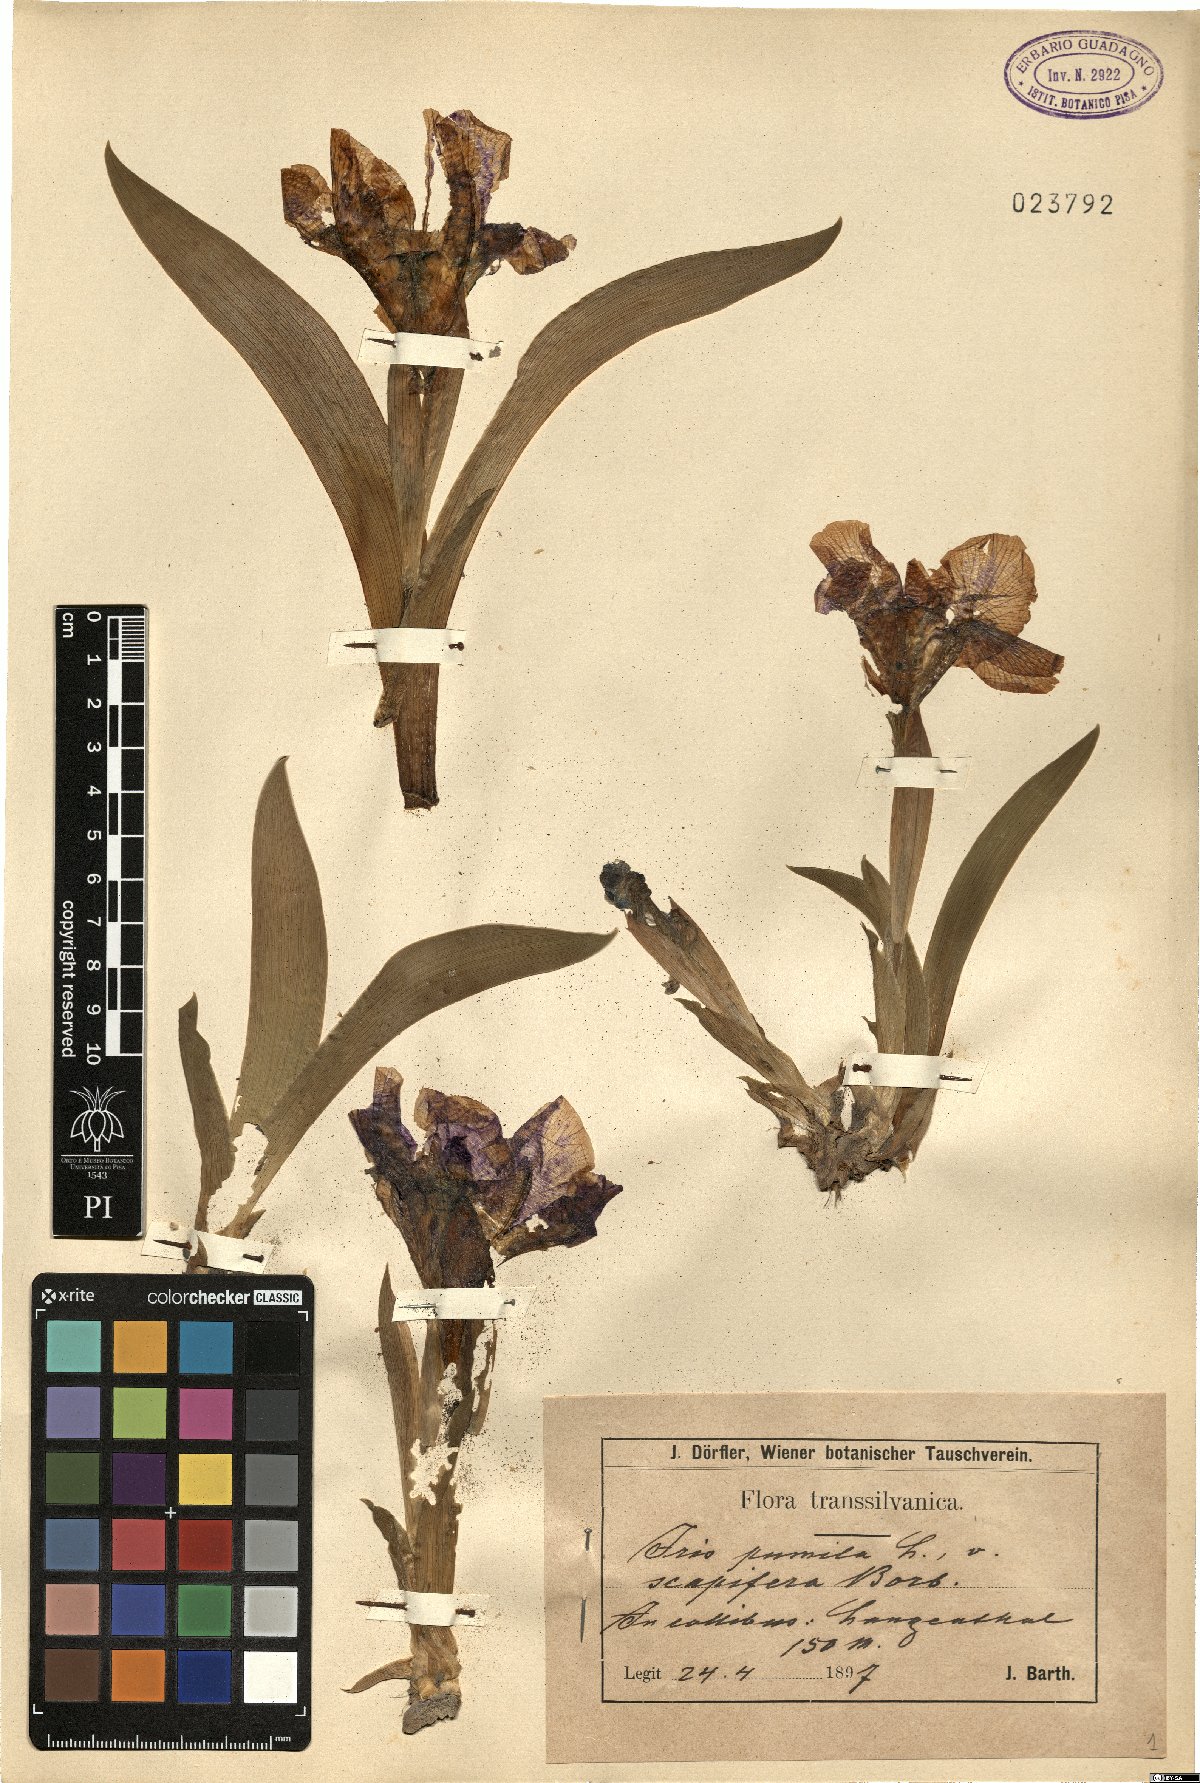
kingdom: Plantae
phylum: Tracheophyta
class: Liliopsida
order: Asparagales
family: Iridaceae
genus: Iris
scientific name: Iris pumila
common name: Dwarf iris
